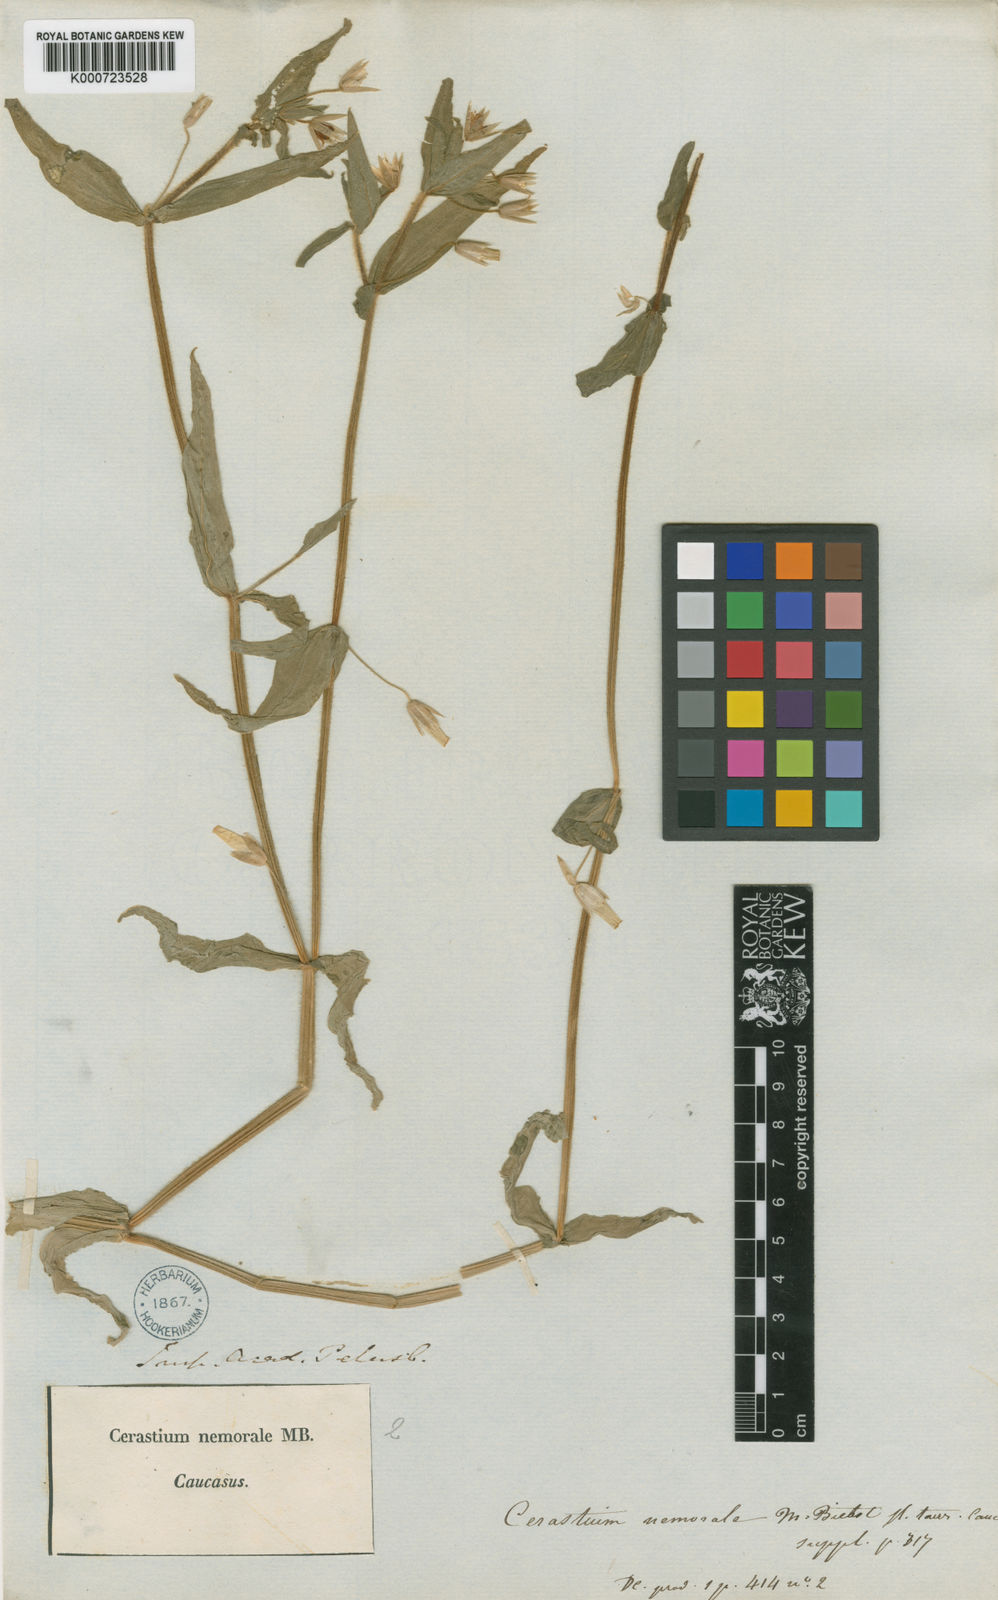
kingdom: Plantae
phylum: Tracheophyta
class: Magnoliopsida
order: Caryophyllales
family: Caryophyllaceae
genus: Cerastium
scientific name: Cerastium nemorale
